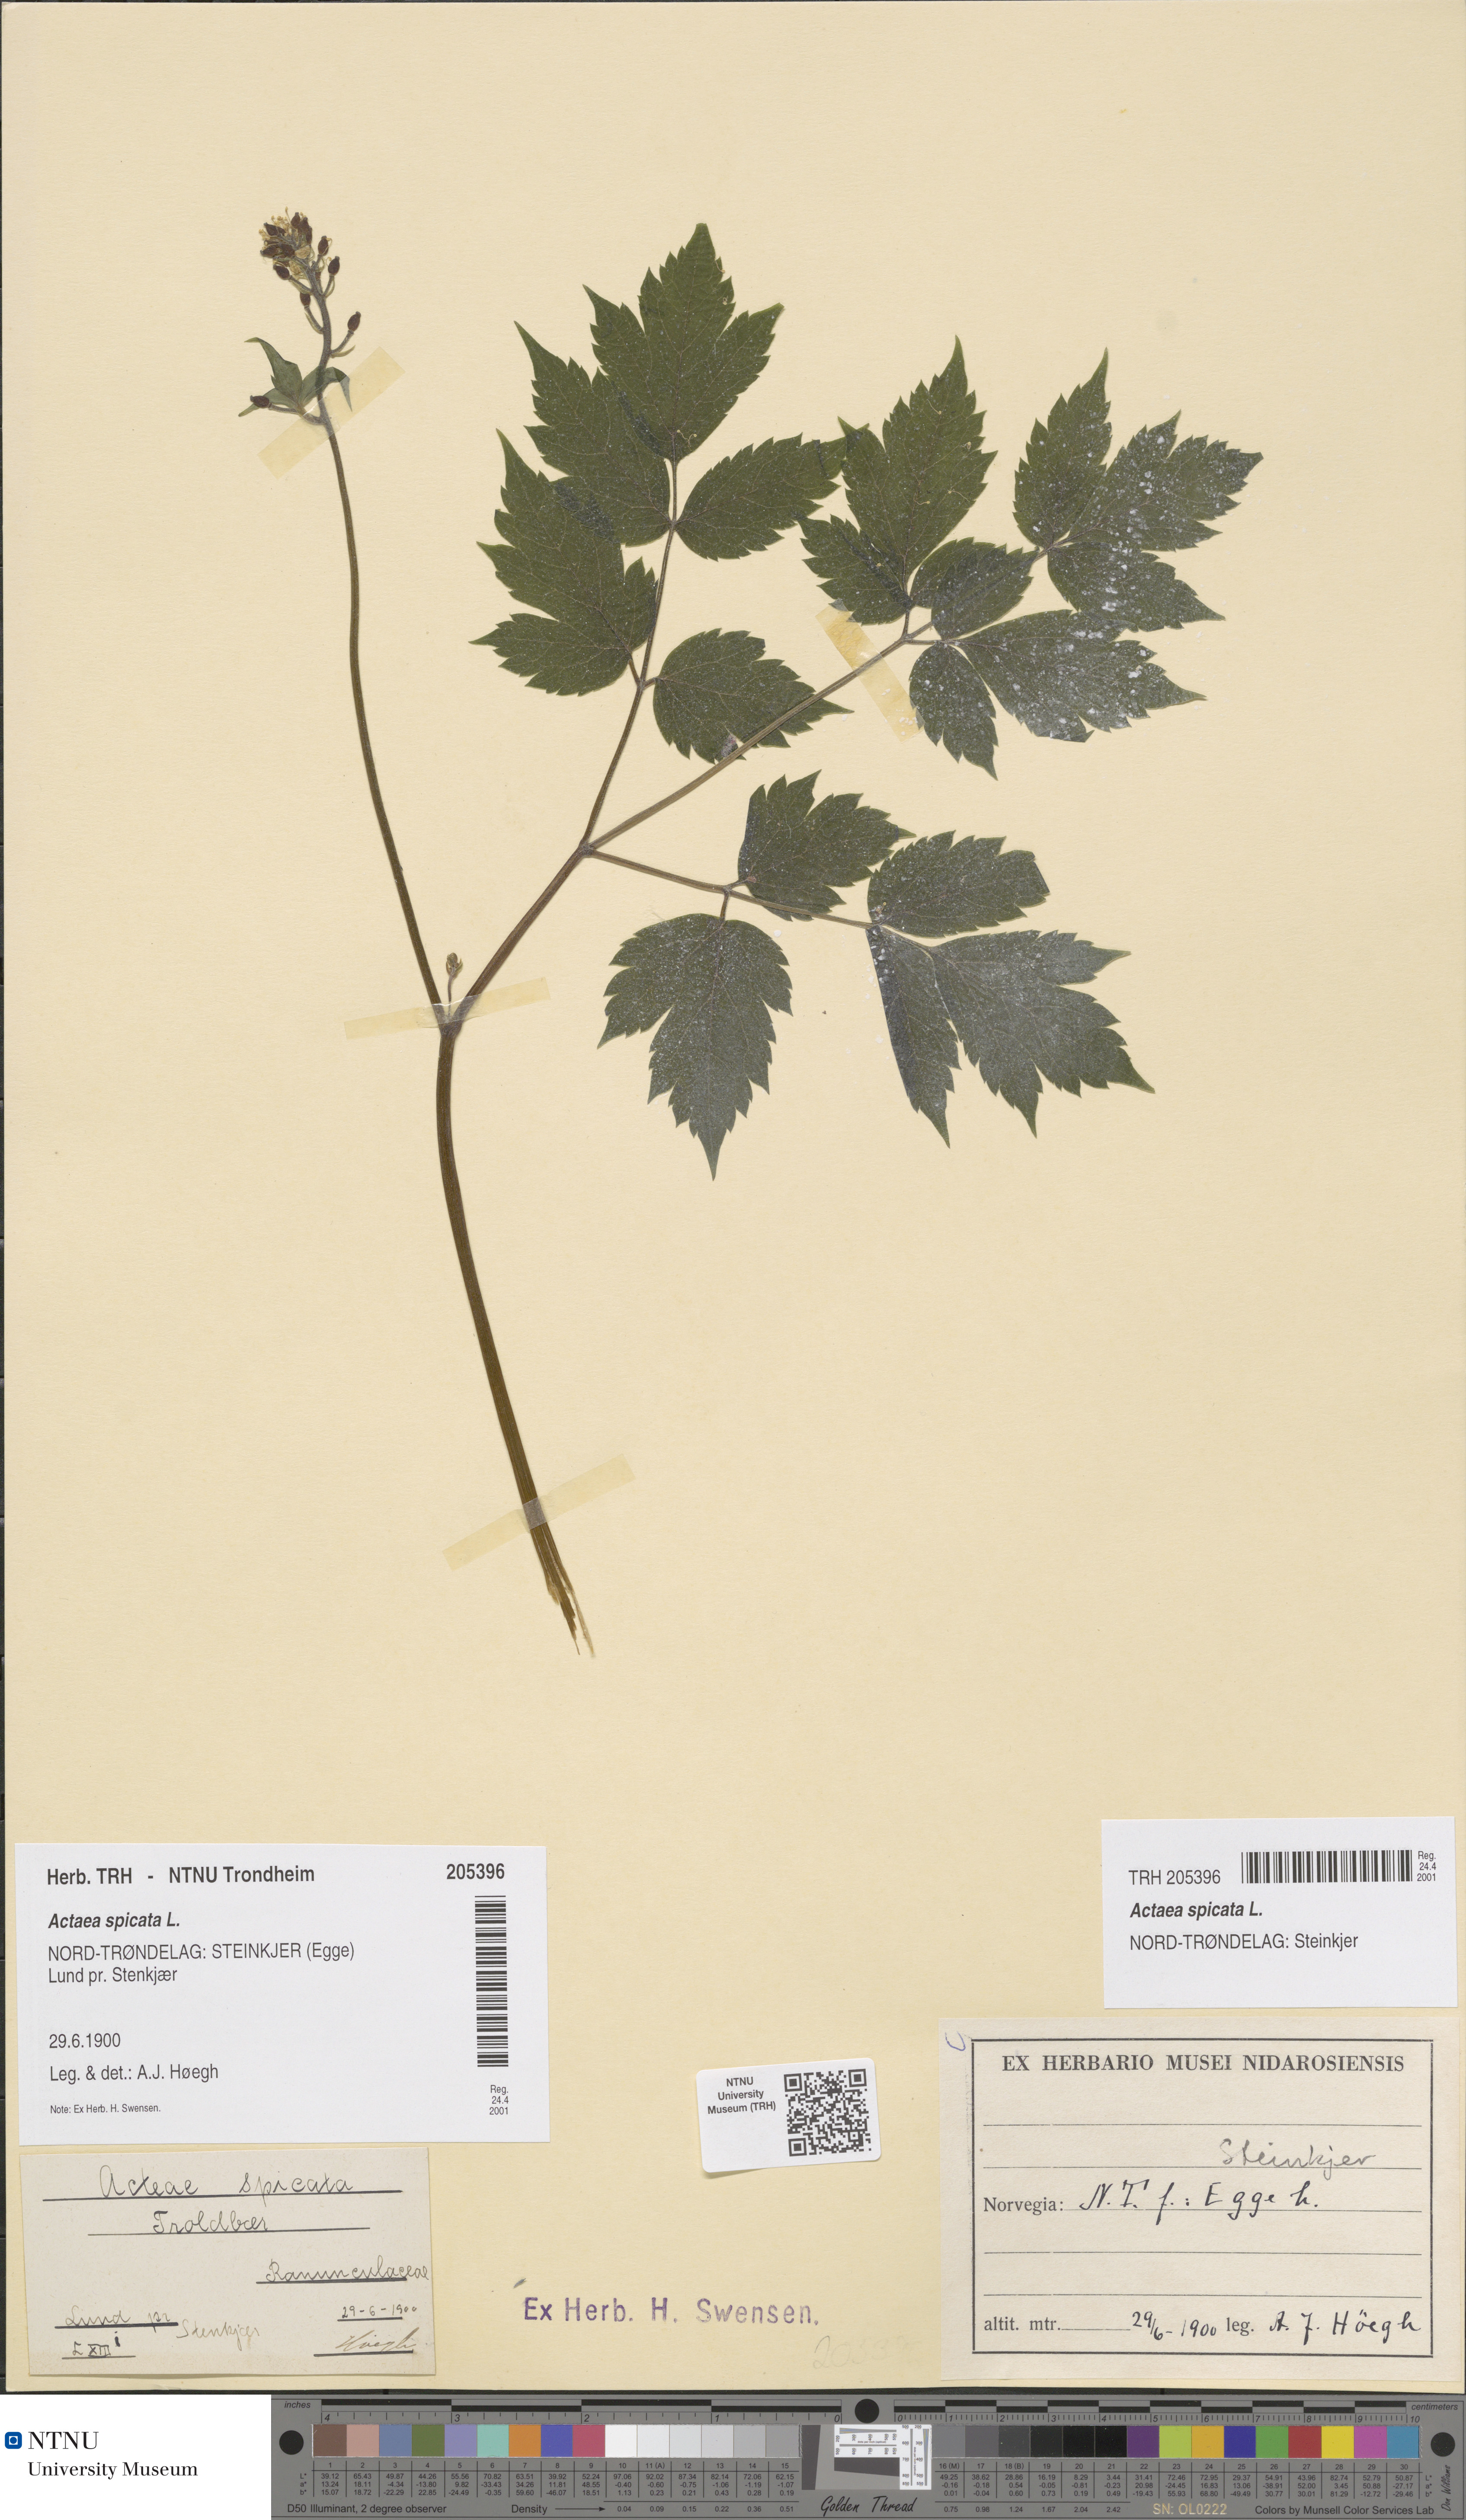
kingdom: Plantae
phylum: Tracheophyta
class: Magnoliopsida
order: Ranunculales
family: Ranunculaceae
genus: Actaea
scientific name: Actaea spicata
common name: Baneberry
